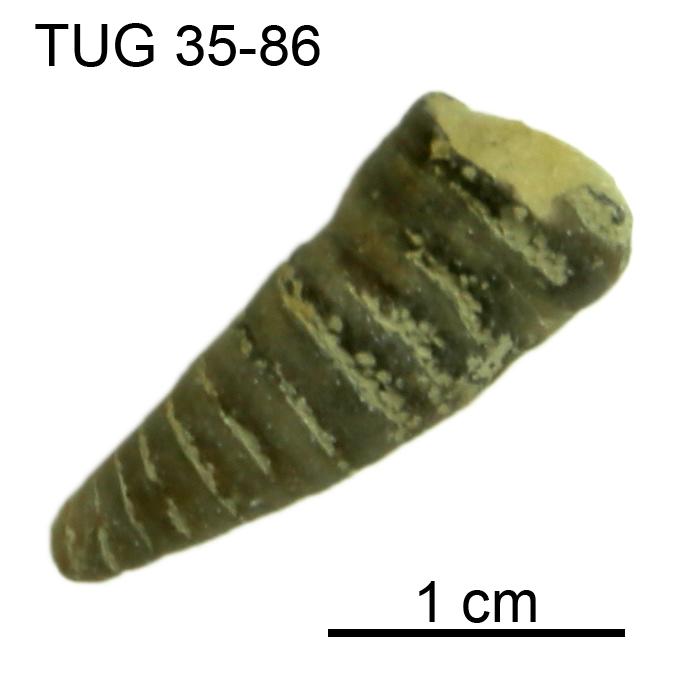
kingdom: Animalia
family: Cornulitidae
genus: Cornulites
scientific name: Cornulites
